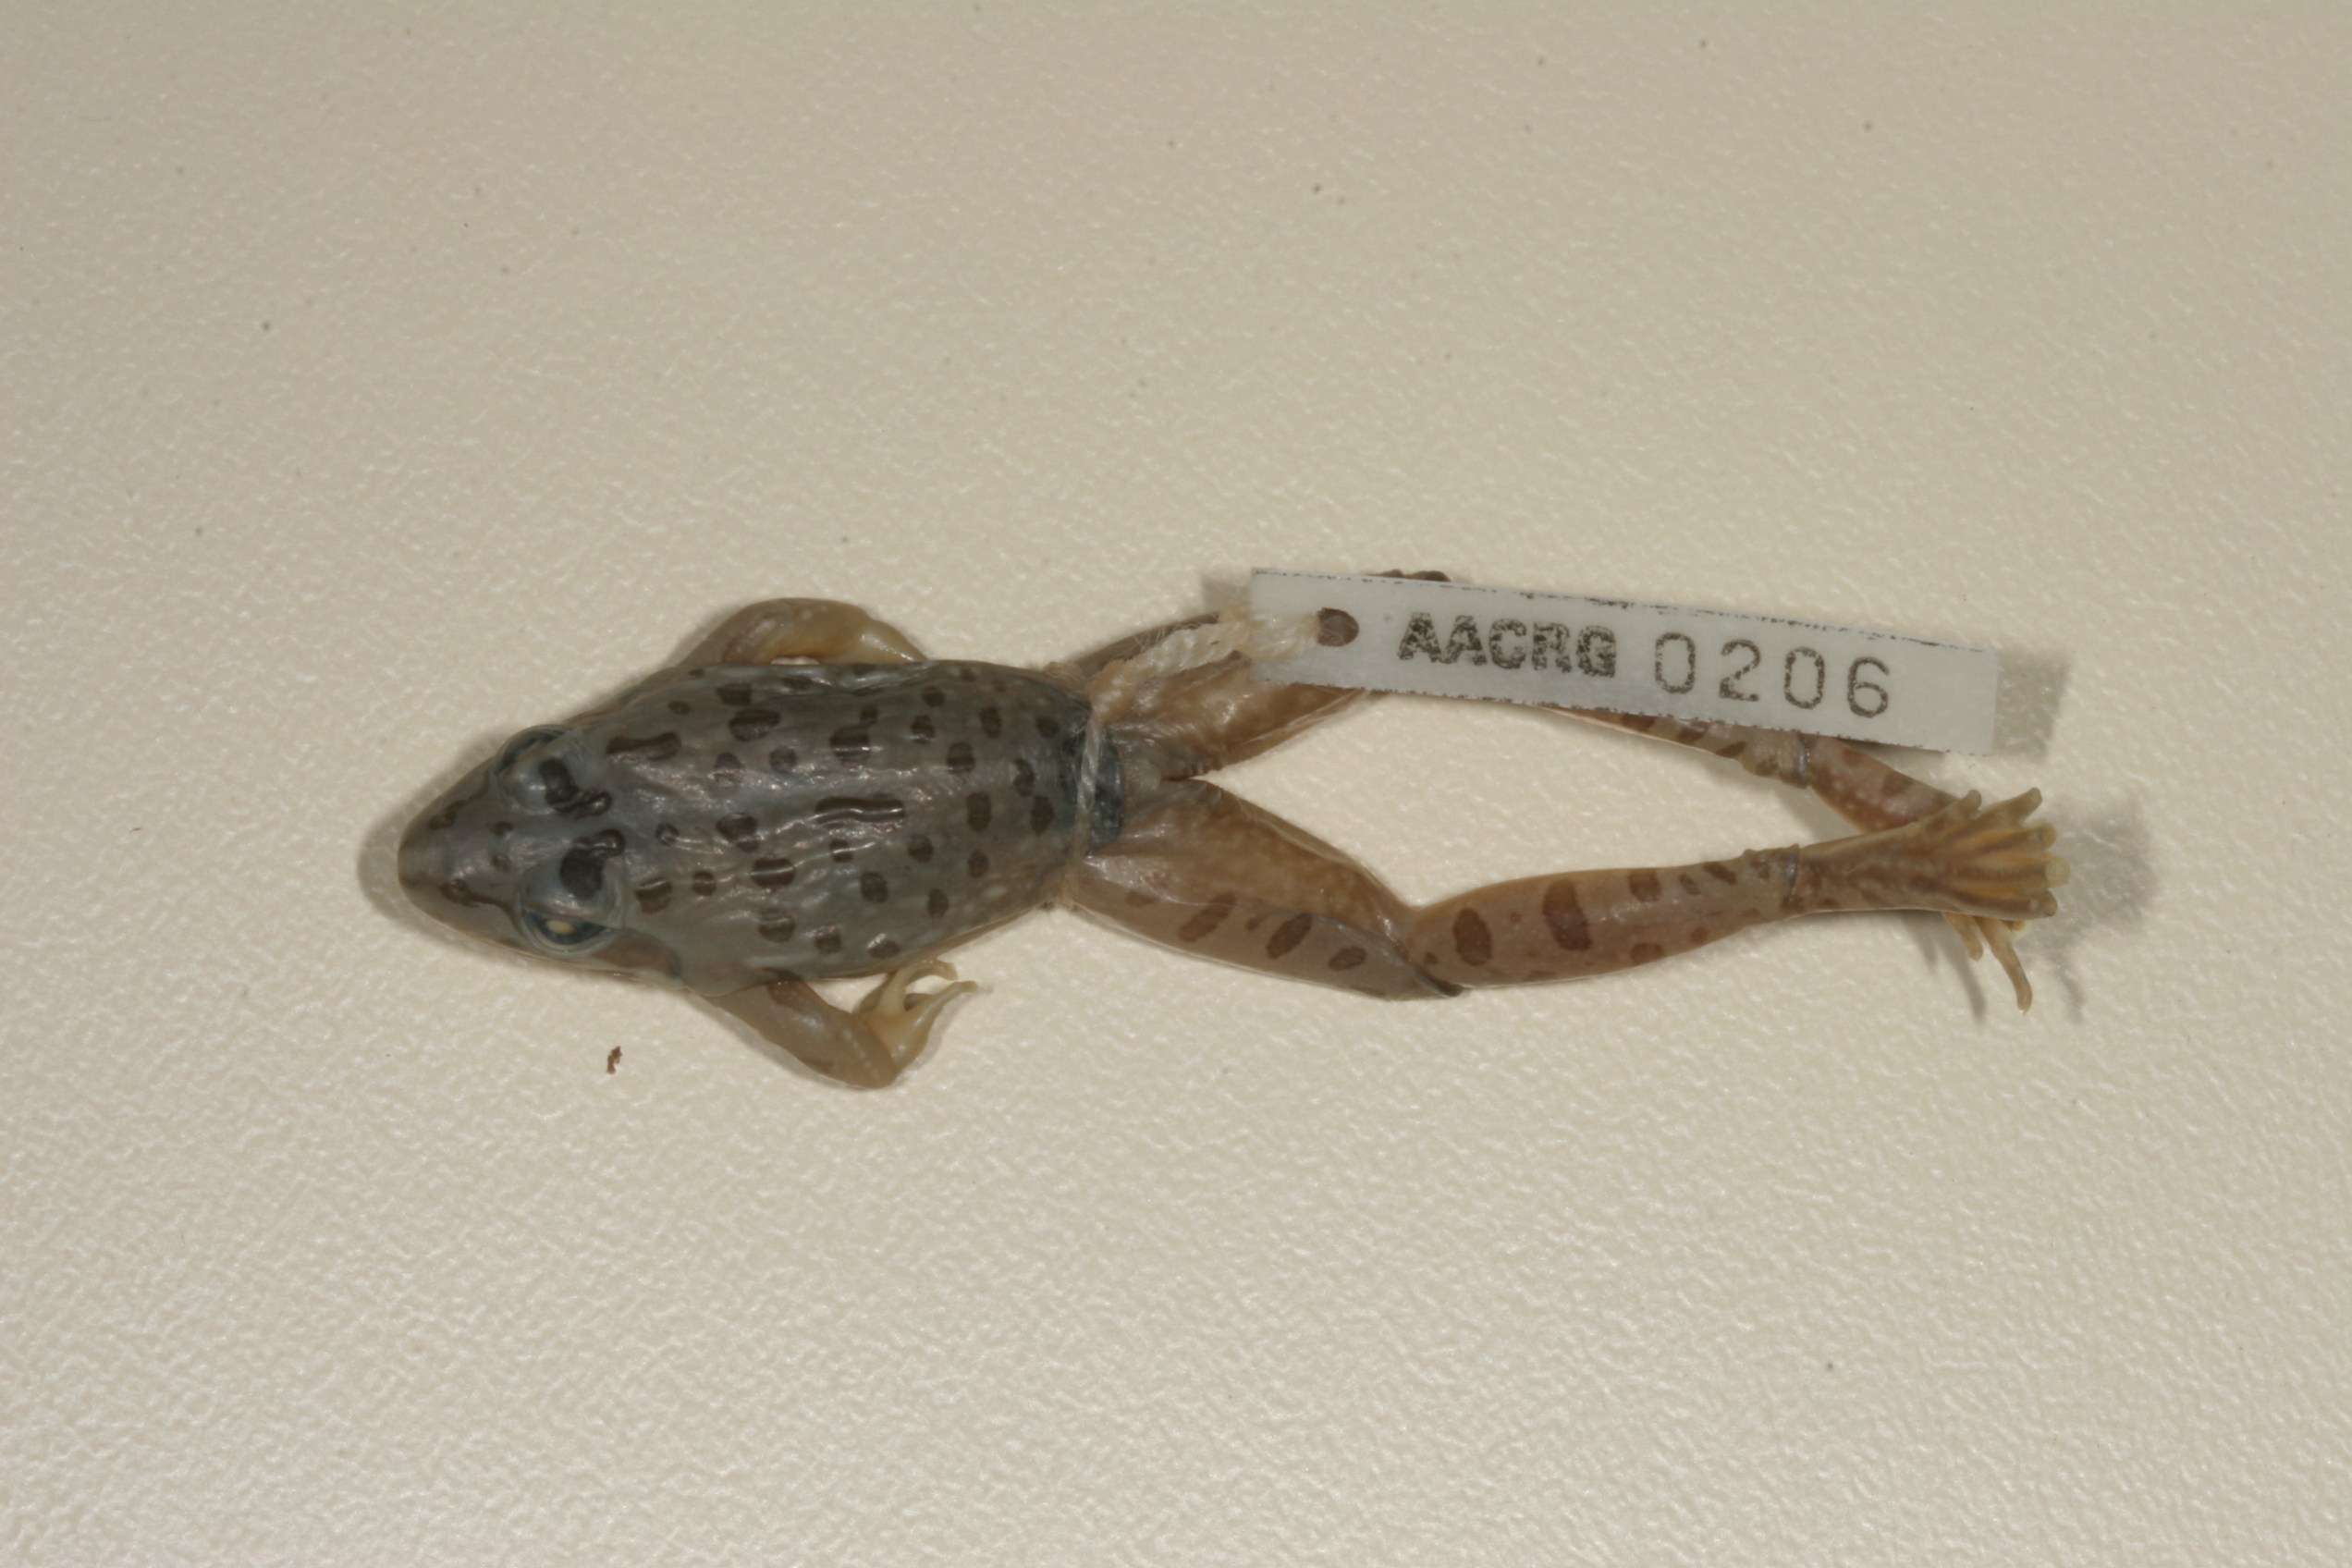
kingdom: Animalia
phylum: Chordata
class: Amphibia
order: Anura
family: Pyxicephalidae
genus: Amietia
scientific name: Amietia angolensis
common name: Dusky-throated frog
